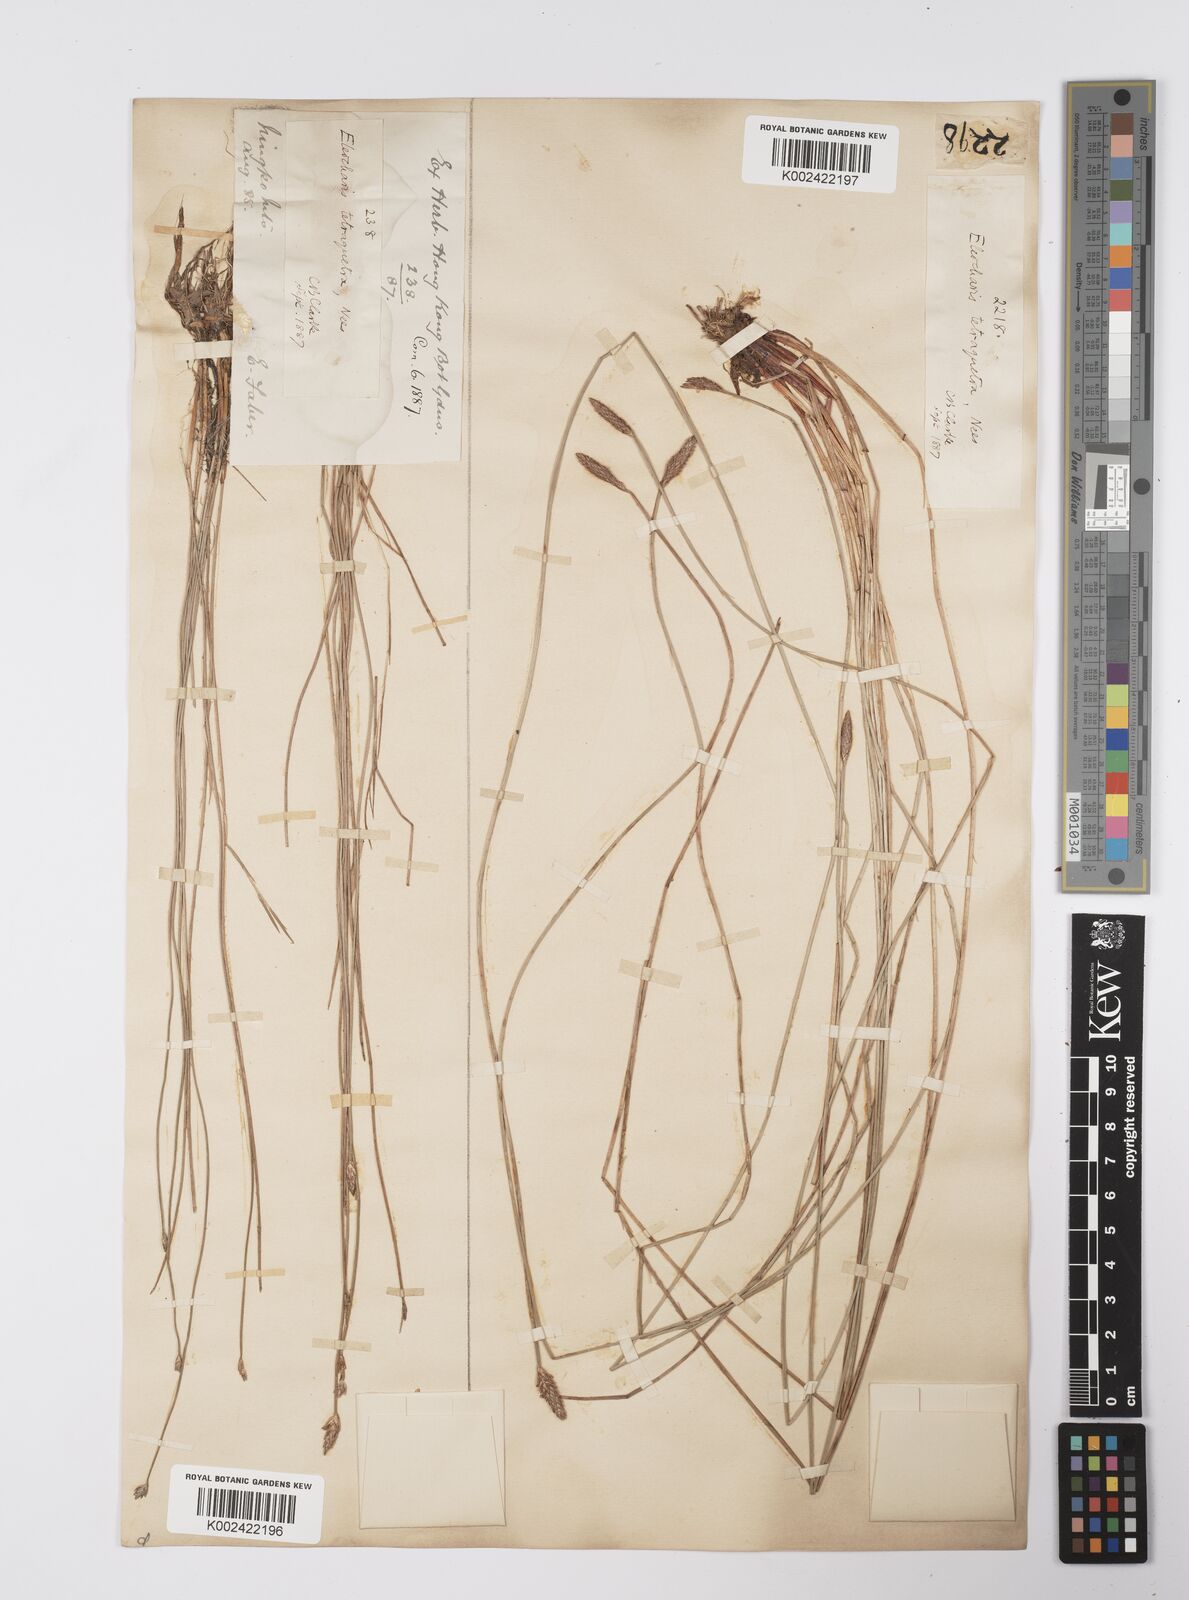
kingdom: Plantae
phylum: Tracheophyta
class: Liliopsida
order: Poales
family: Cyperaceae
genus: Eleocharis
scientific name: Eleocharis tetraquetra
